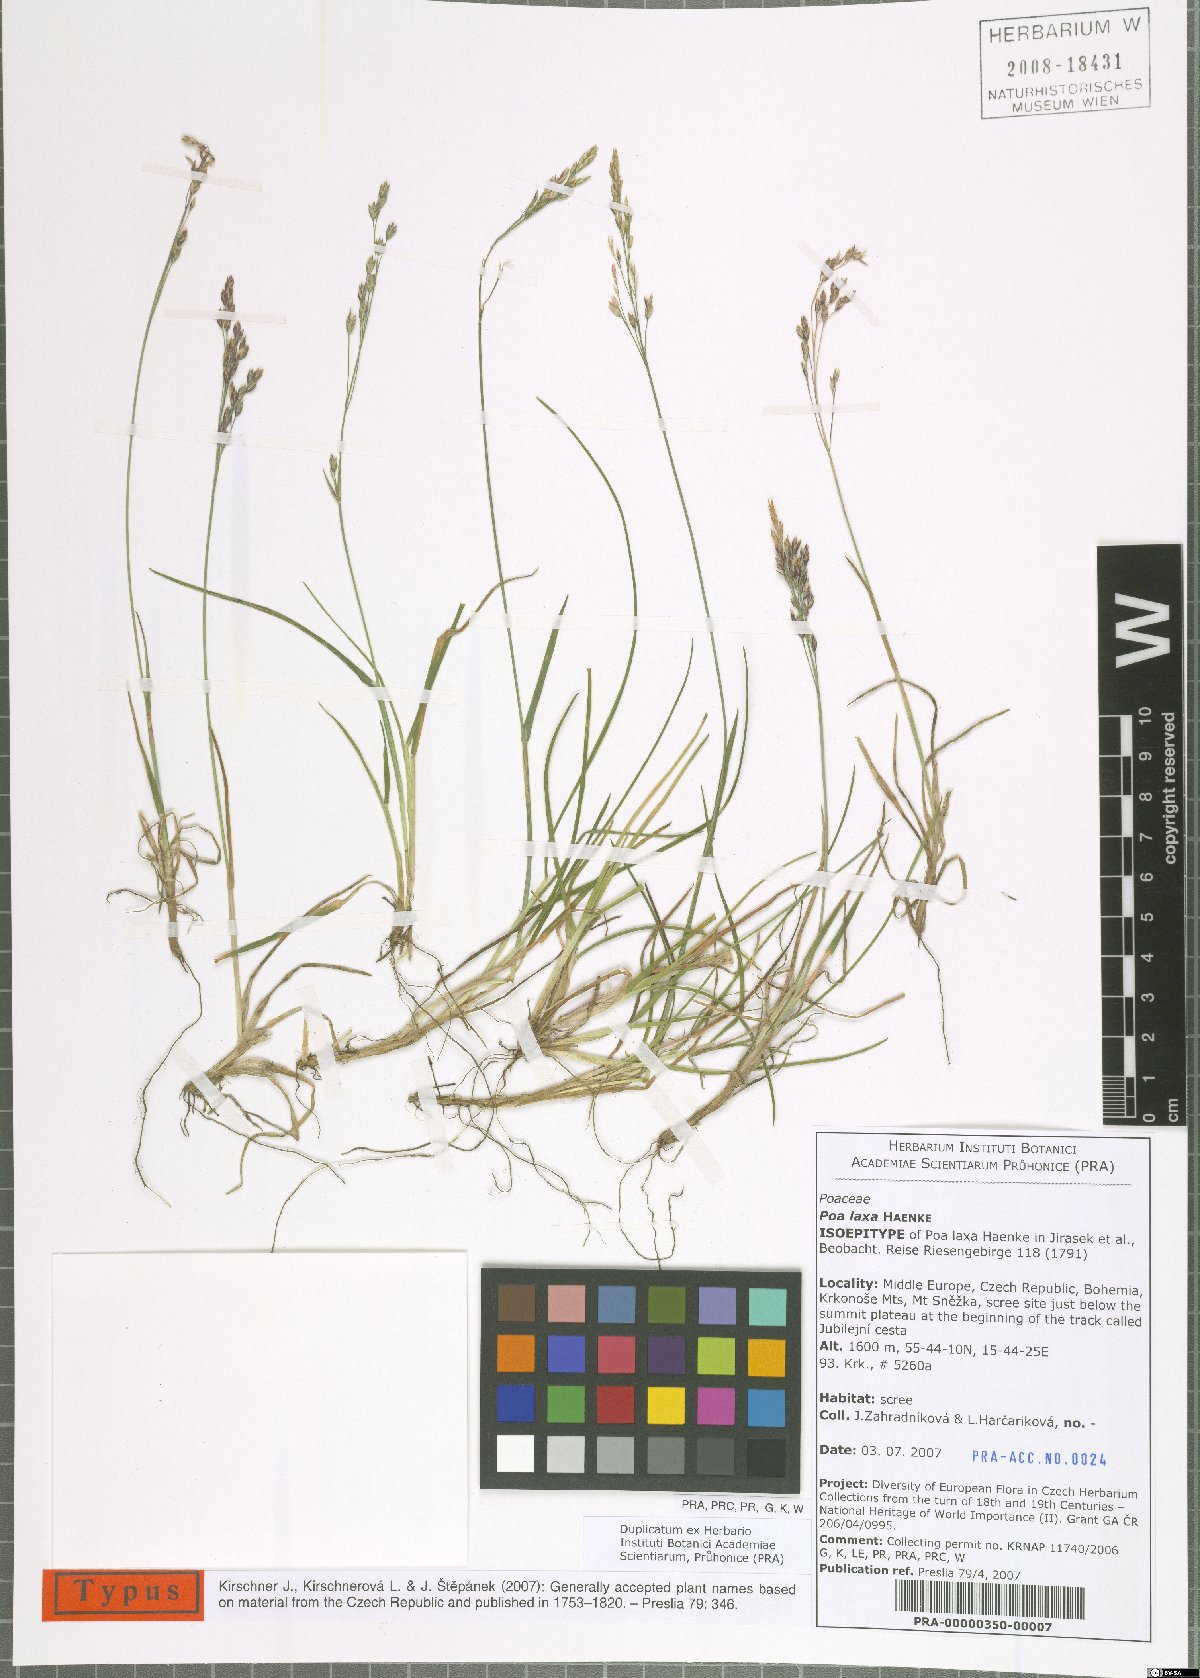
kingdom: Plantae
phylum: Tracheophyta
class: Liliopsida
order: Poales
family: Poaceae
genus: Poa
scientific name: Poa laxa
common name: Lax bluegrass
